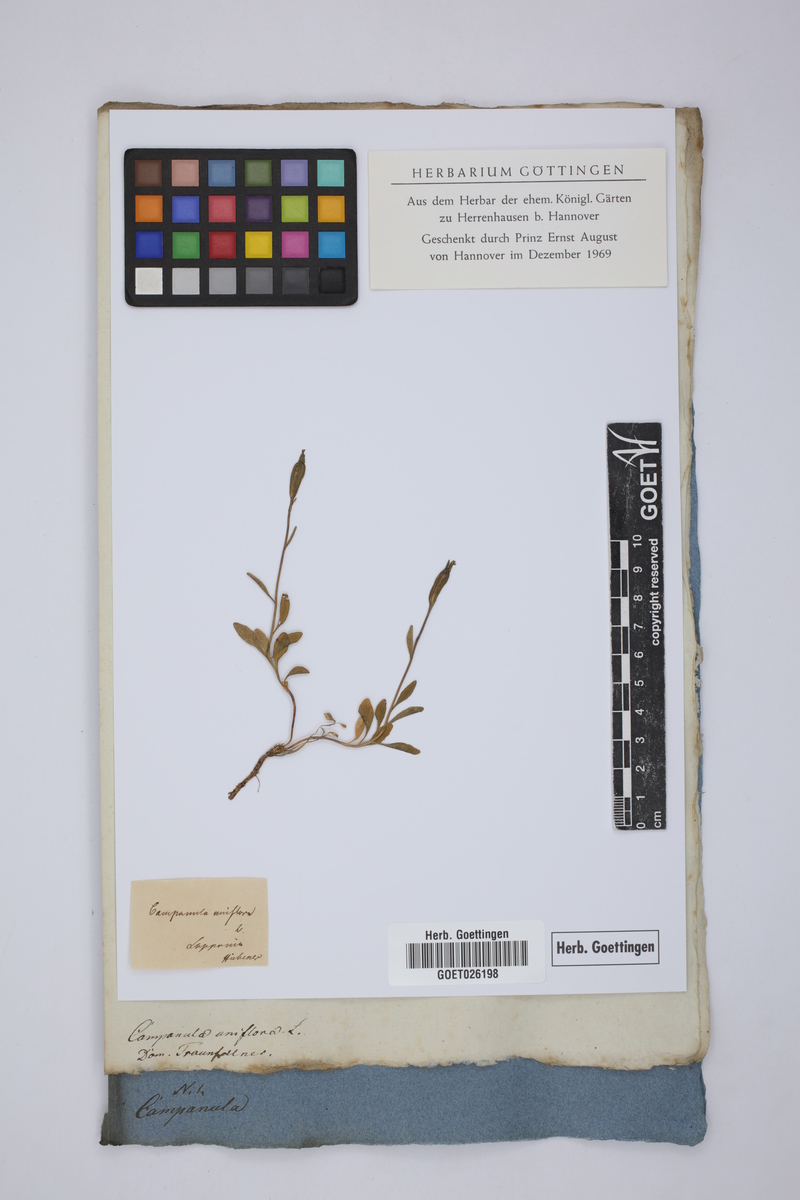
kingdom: Plantae
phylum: Tracheophyta
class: Magnoliopsida
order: Asterales
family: Campanulaceae
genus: Melanocalyx
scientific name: Melanocalyx uniflora
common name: Alpine harebell
